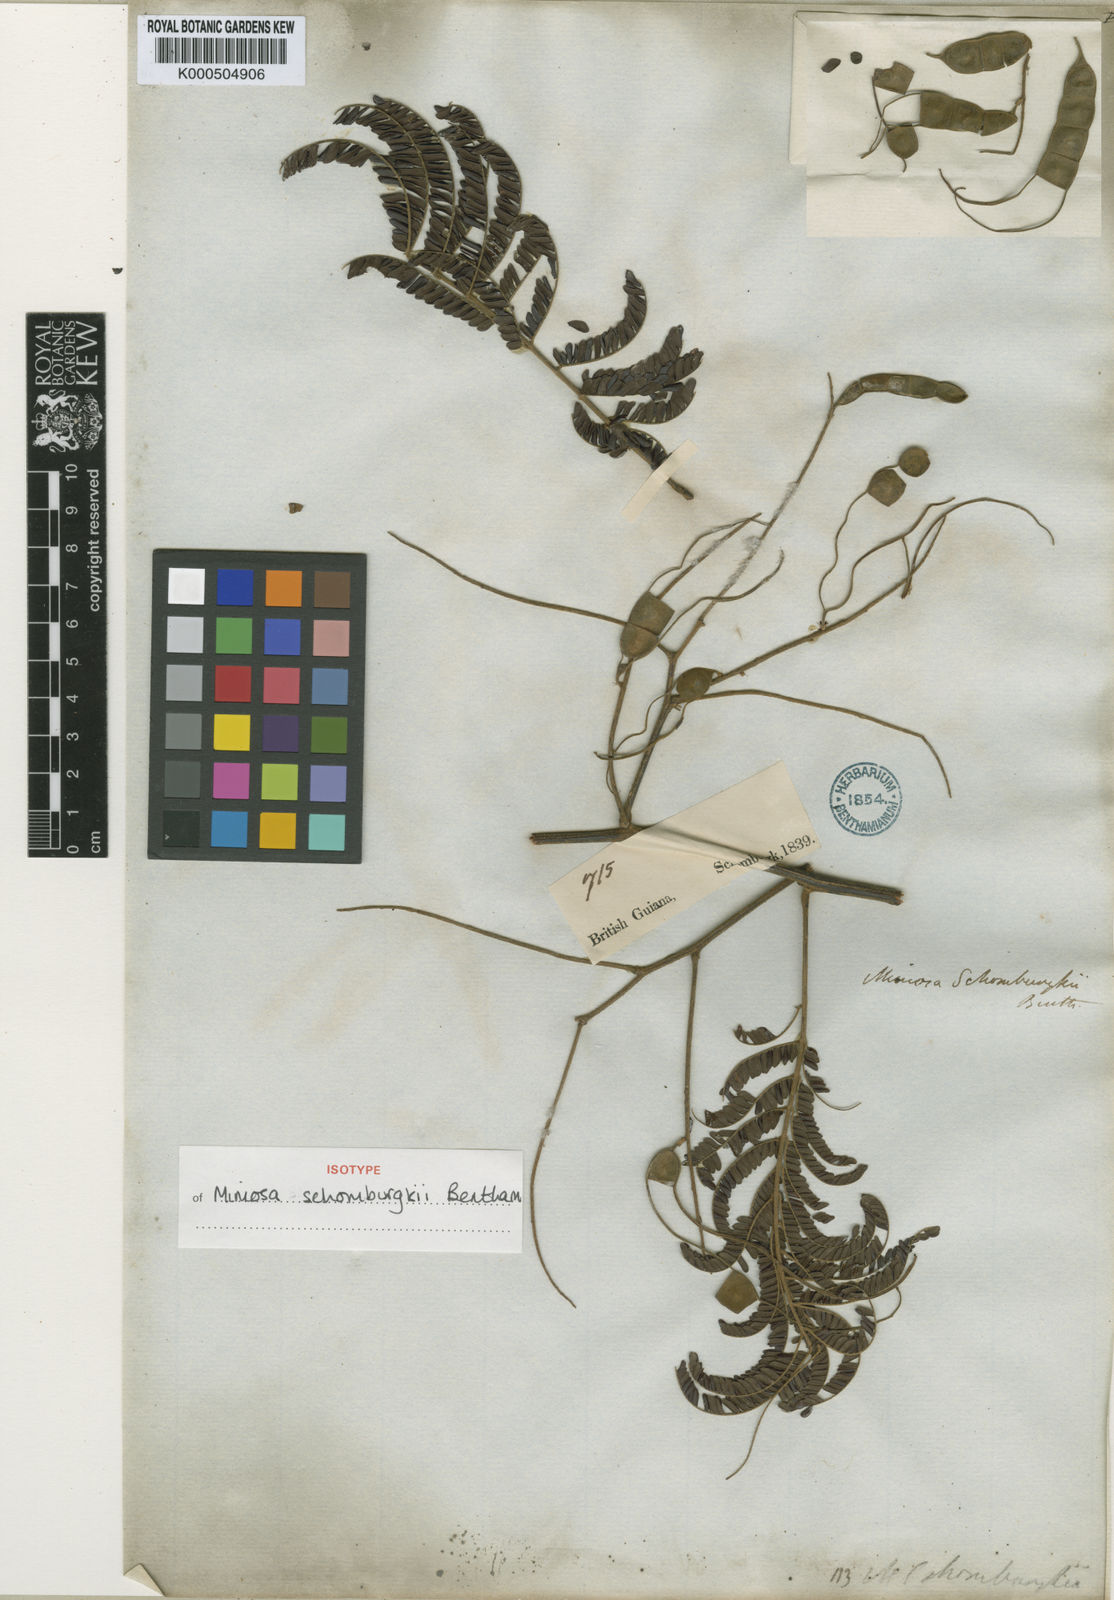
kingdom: Plantae
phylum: Tracheophyta
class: Magnoliopsida
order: Fabales
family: Fabaceae
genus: Mimosa
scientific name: Mimosa schomburgkii
